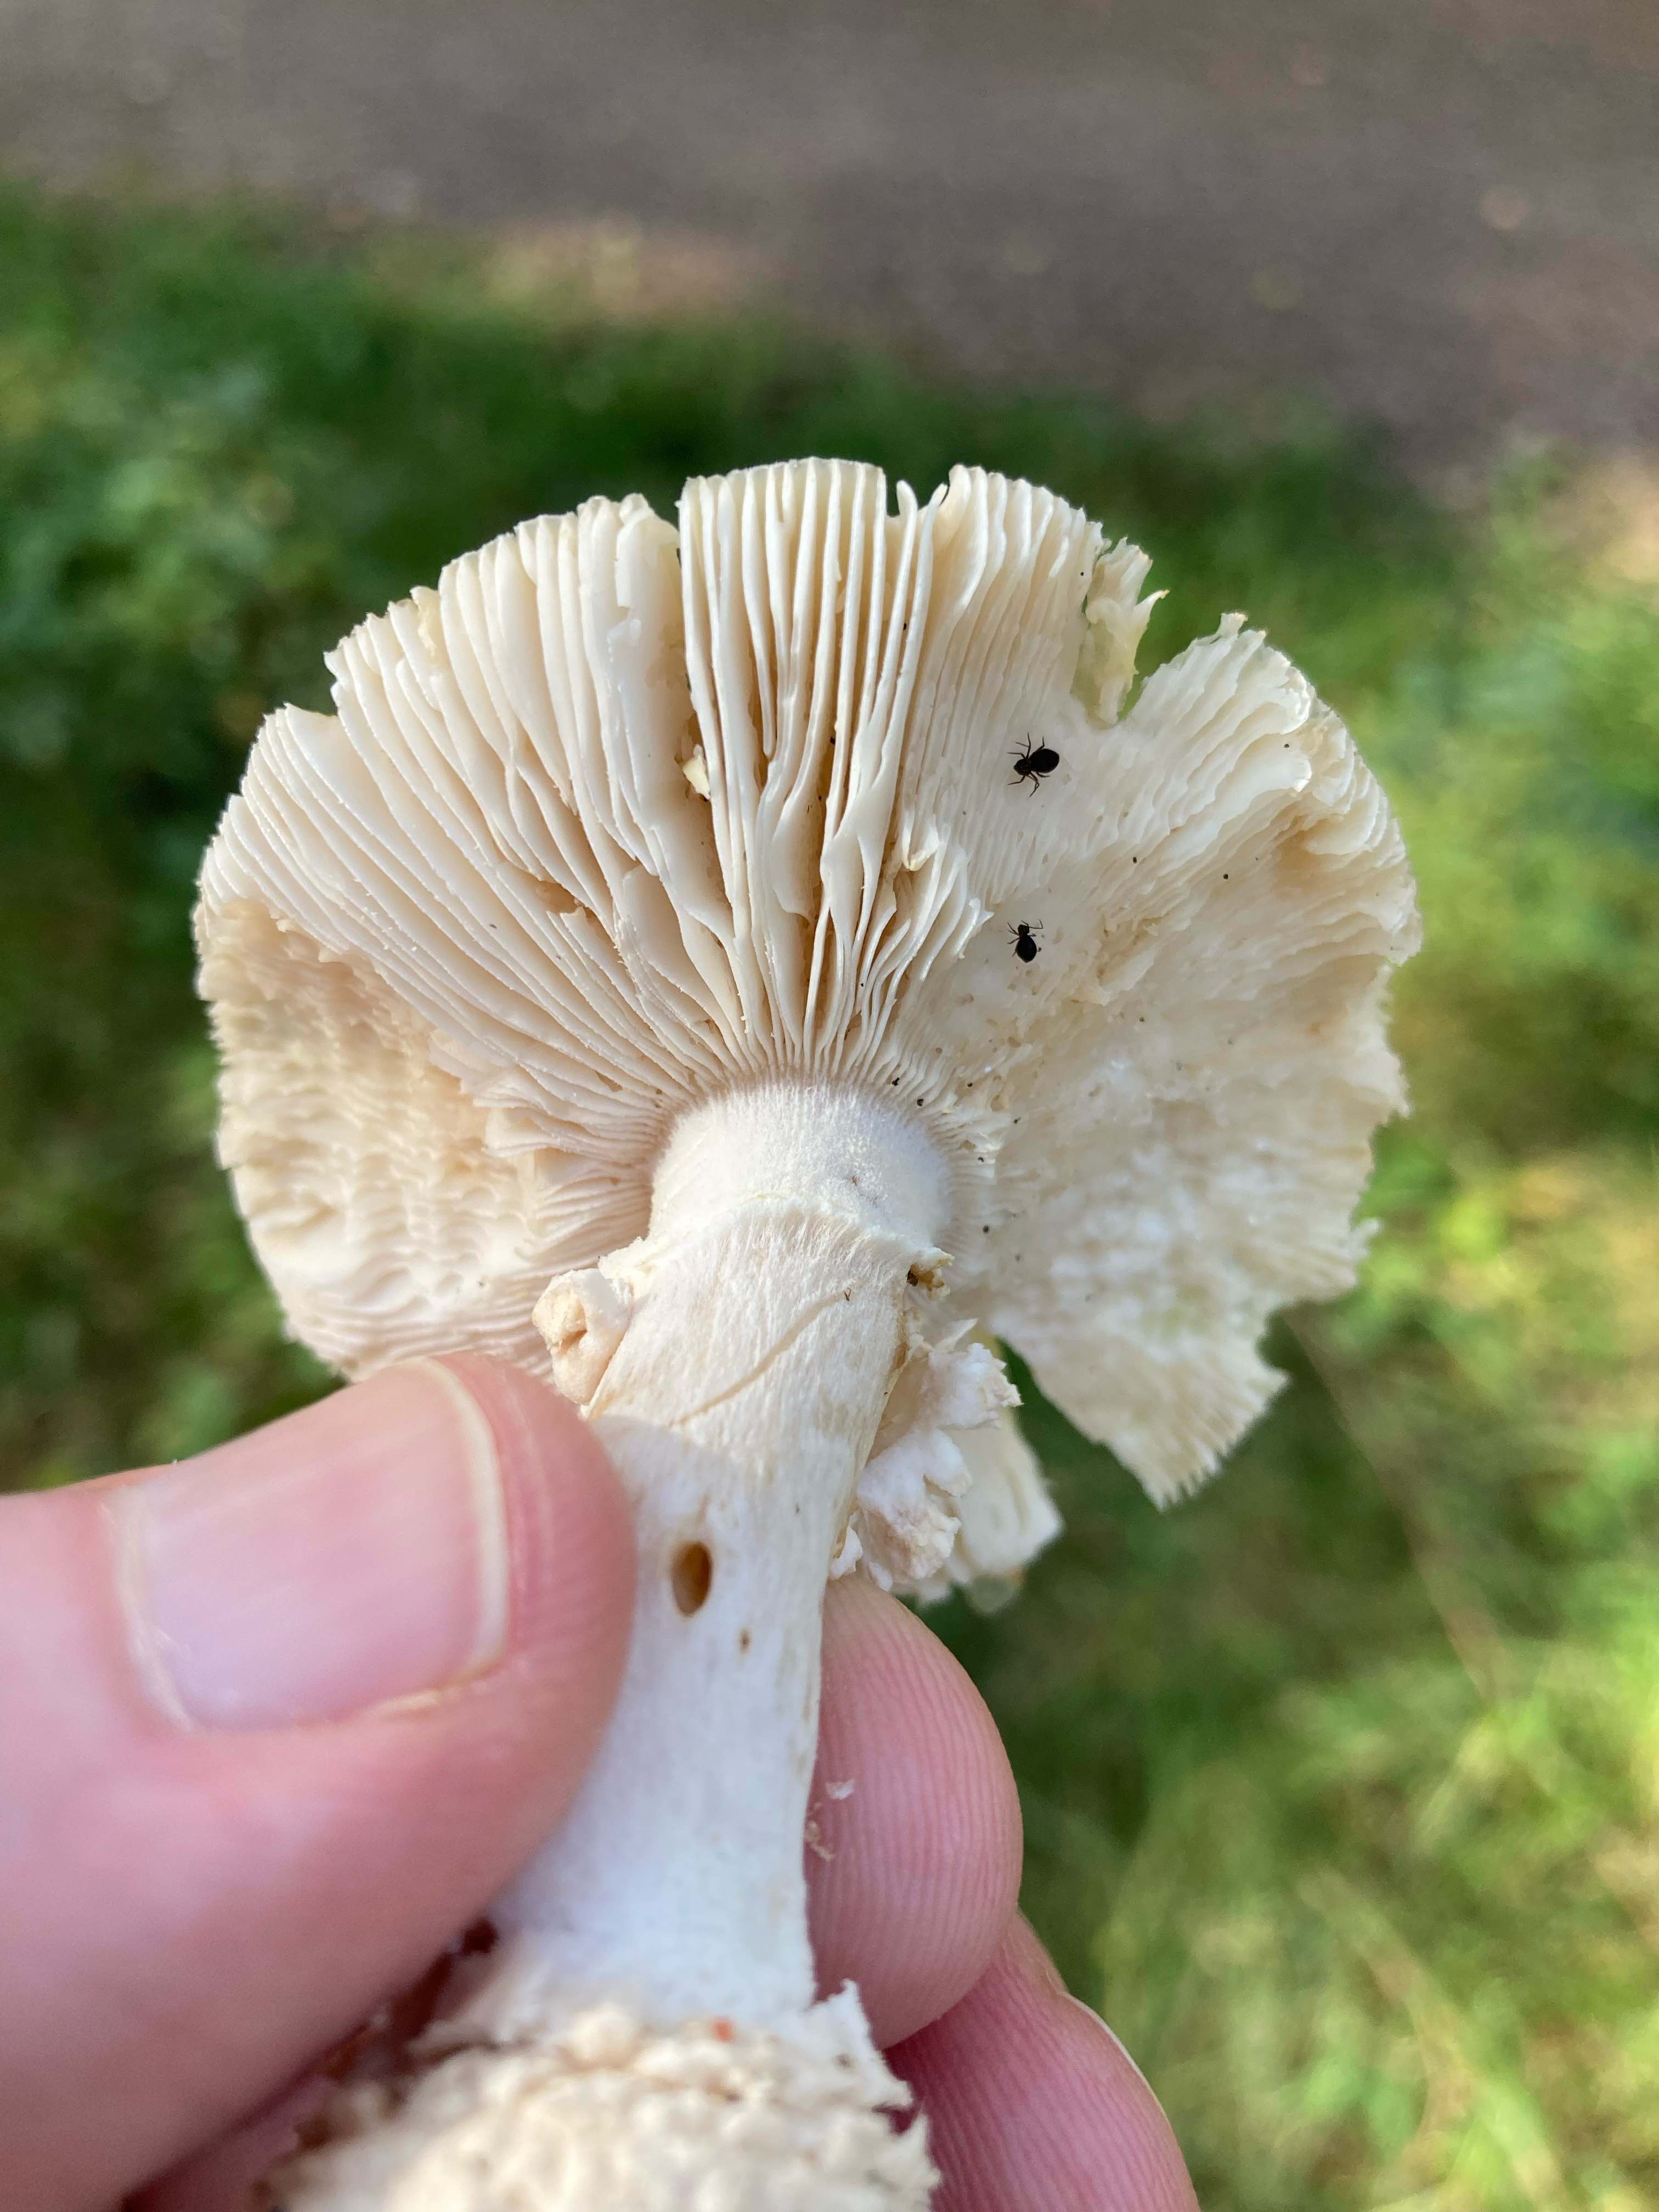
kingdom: Fungi
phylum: Basidiomycota
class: Agaricomycetes
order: Agaricales
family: Amanitaceae
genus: Amanita
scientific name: Amanita
